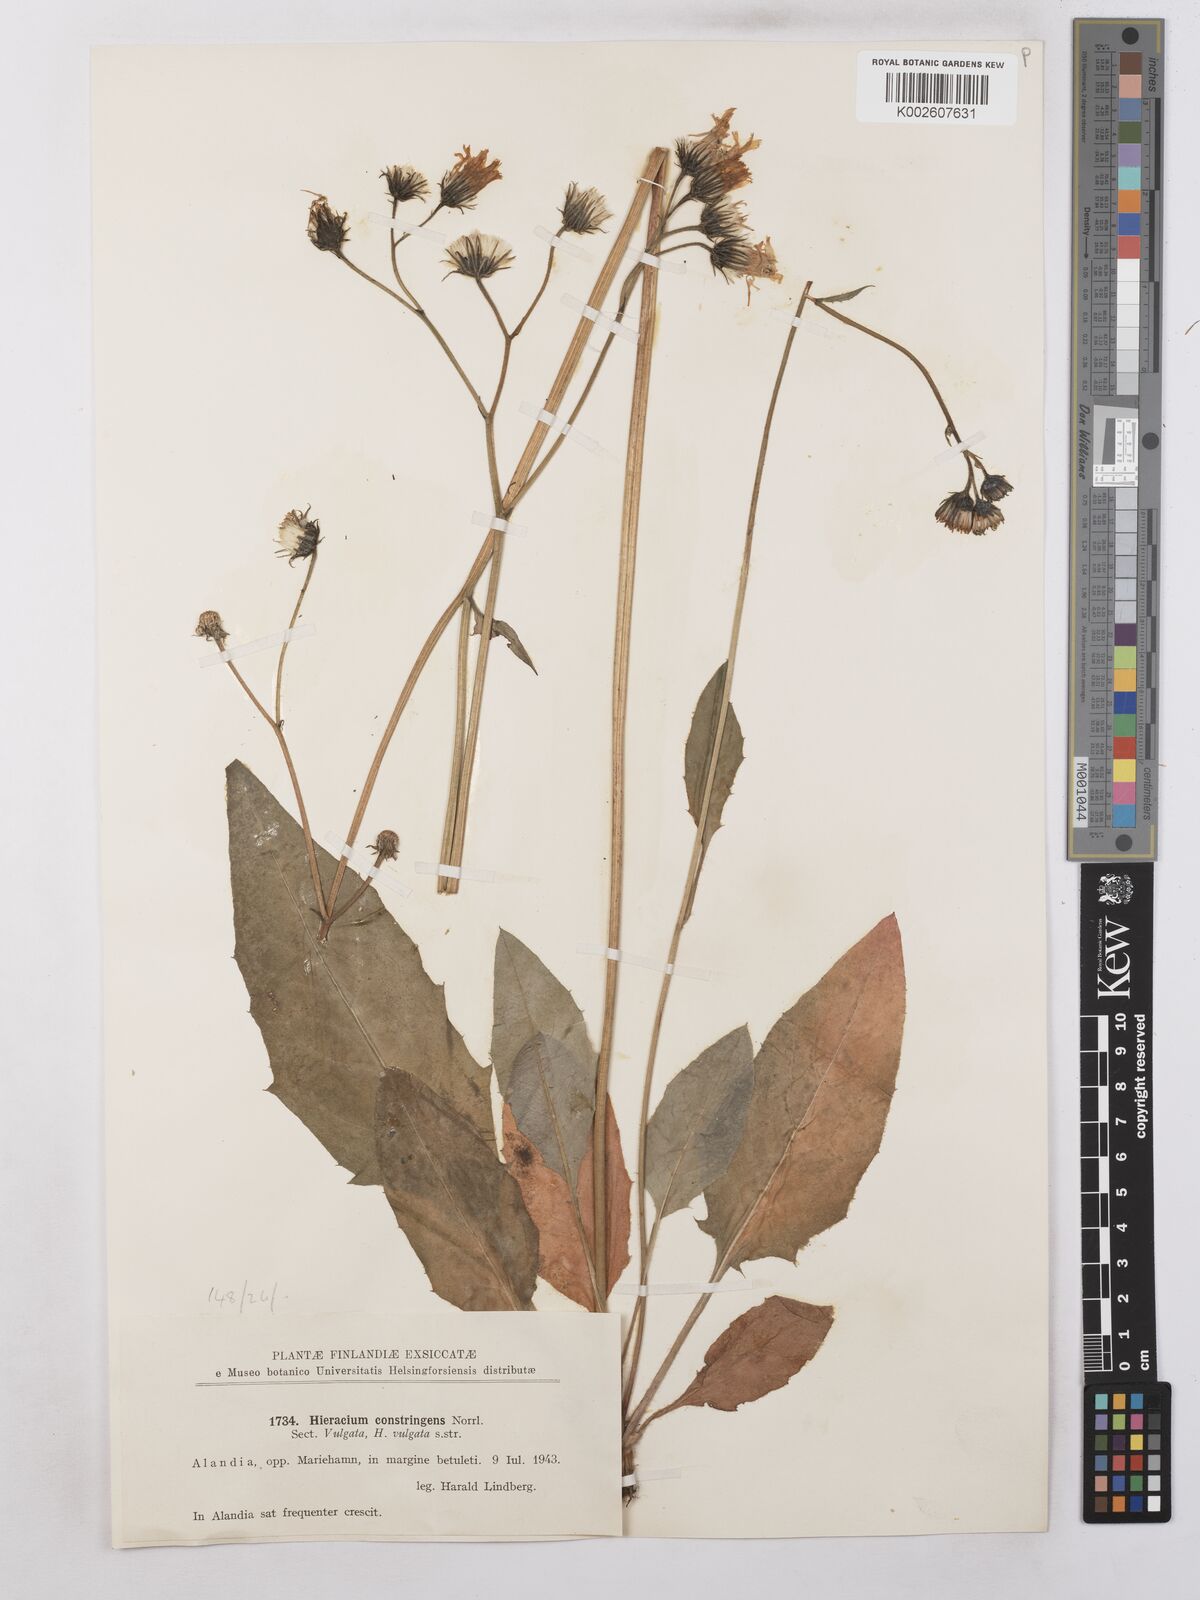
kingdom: Plantae
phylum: Tracheophyta
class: Magnoliopsida
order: Asterales
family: Asteraceae
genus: Hieracium
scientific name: Hieracium subramosum
